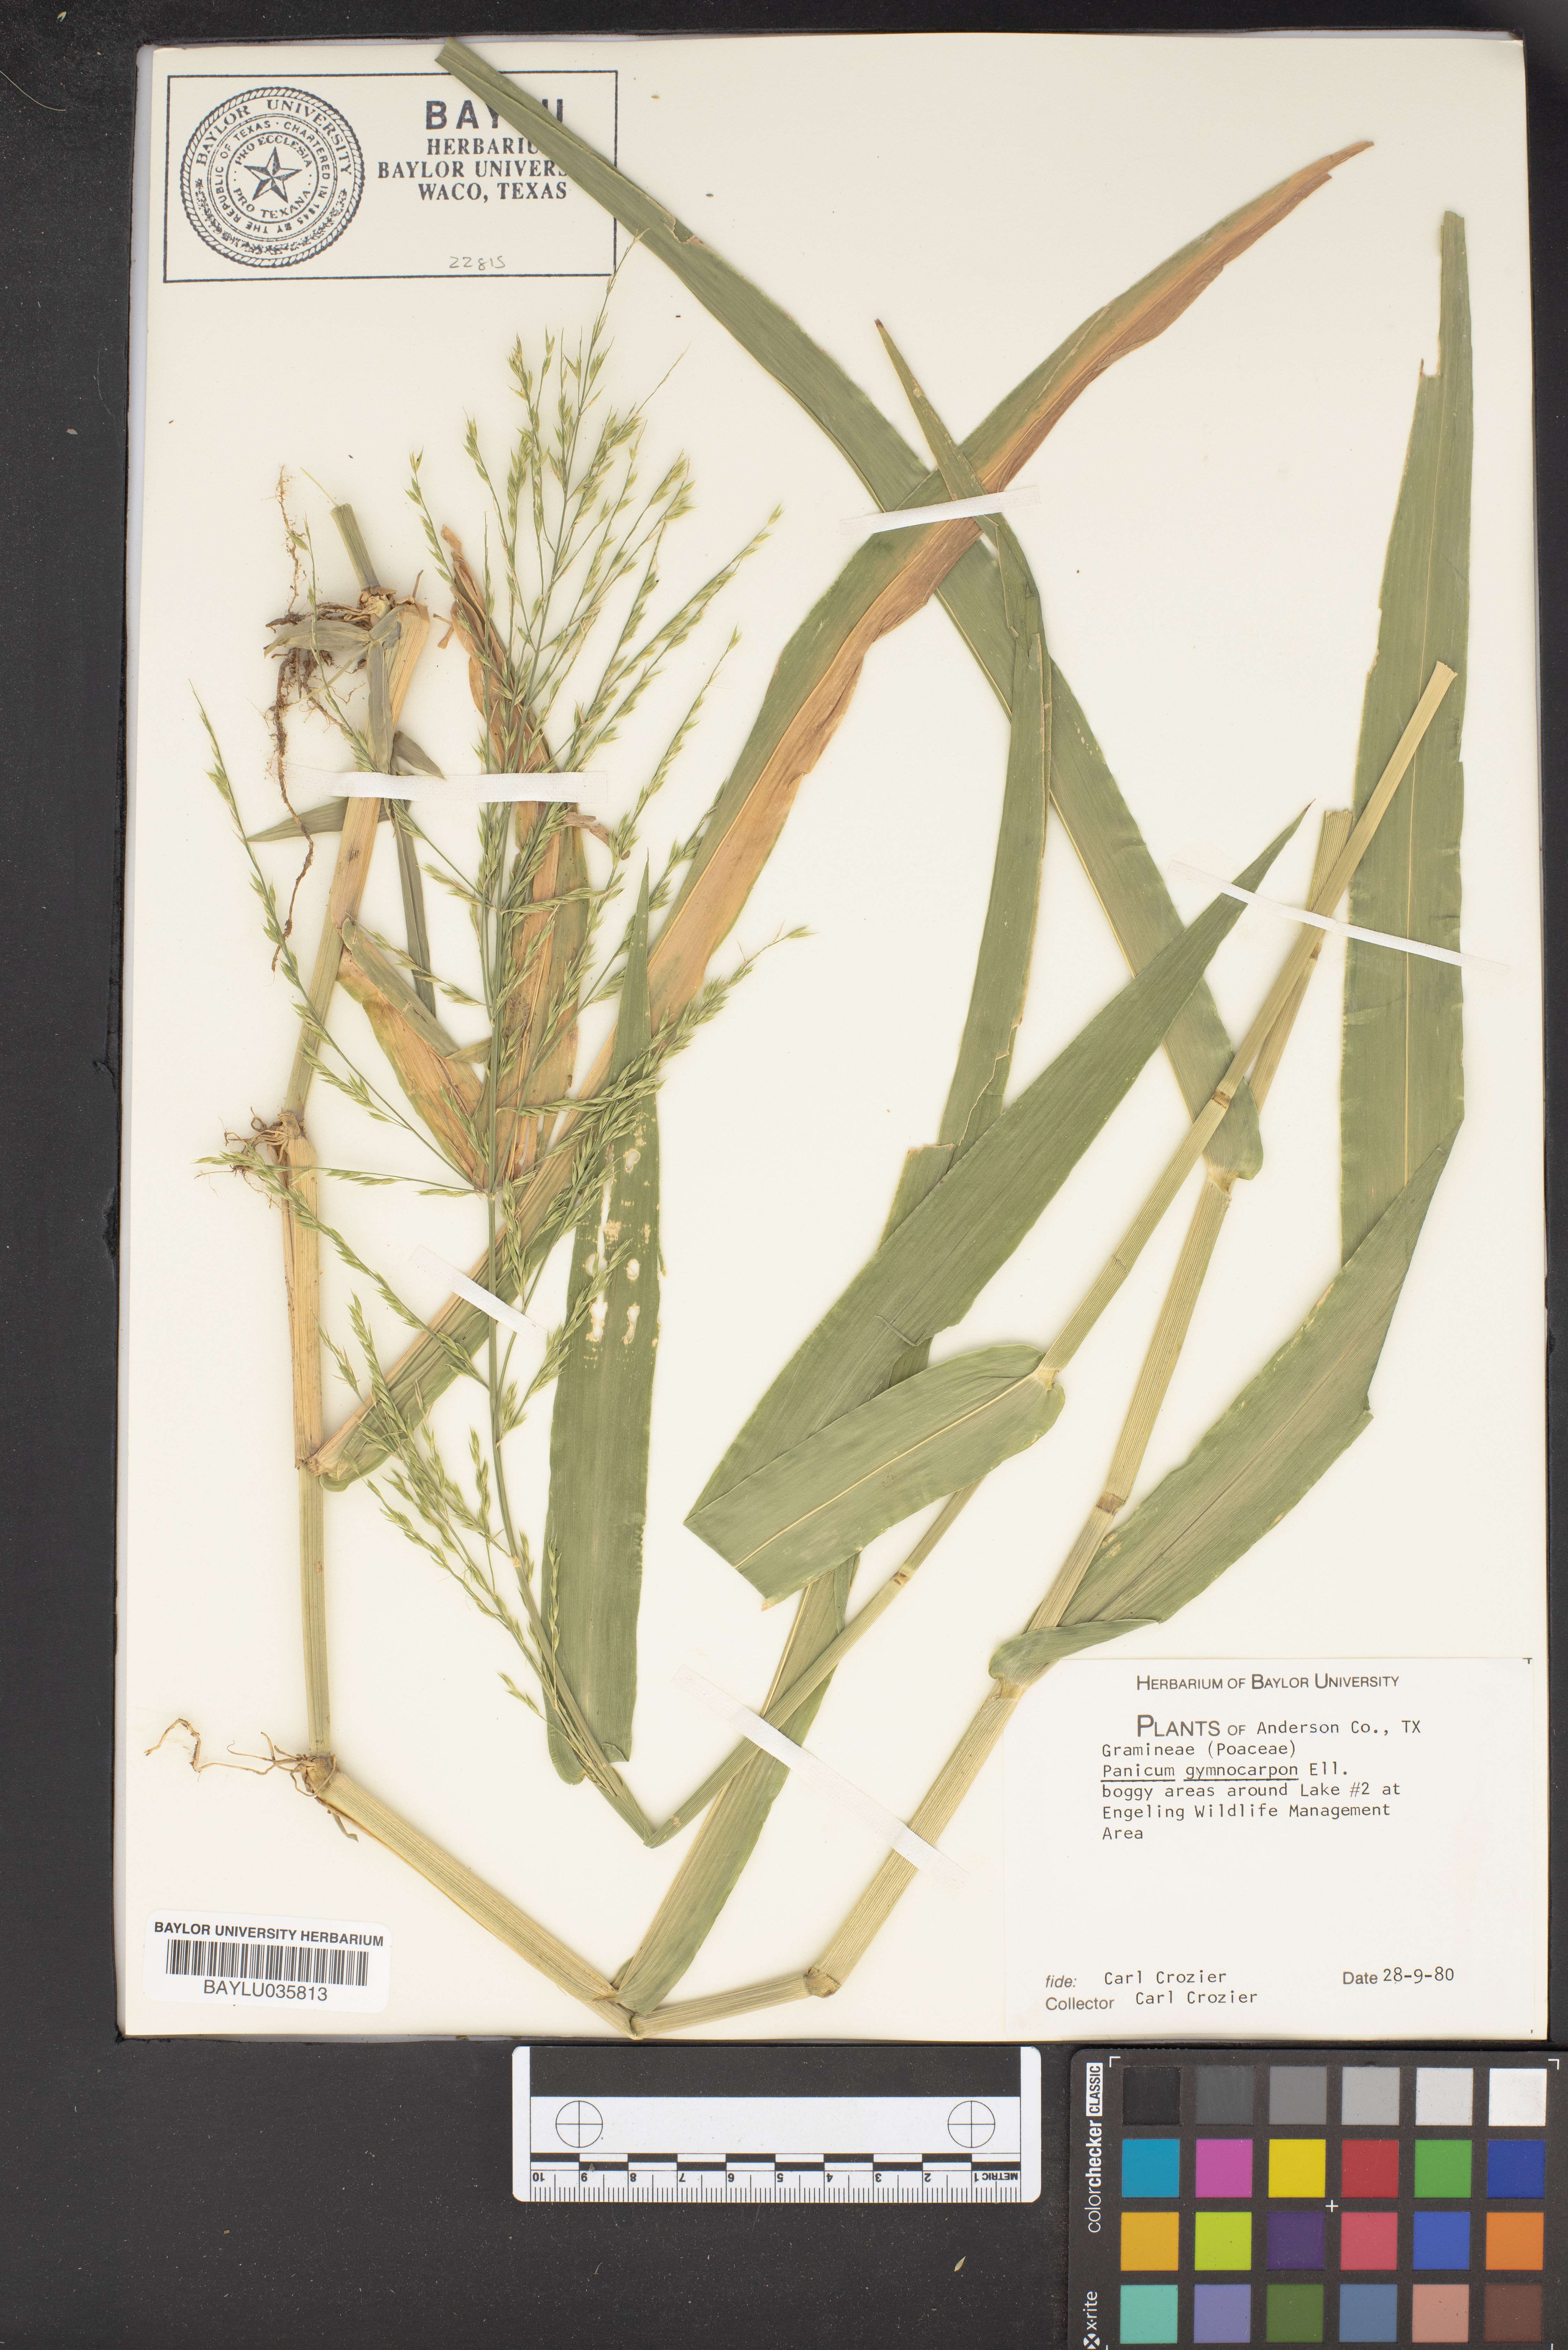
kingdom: Plantae
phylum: Tracheophyta
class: Liliopsida
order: Poales
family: Poaceae
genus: Panicum
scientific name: Panicum gymnocarpon
